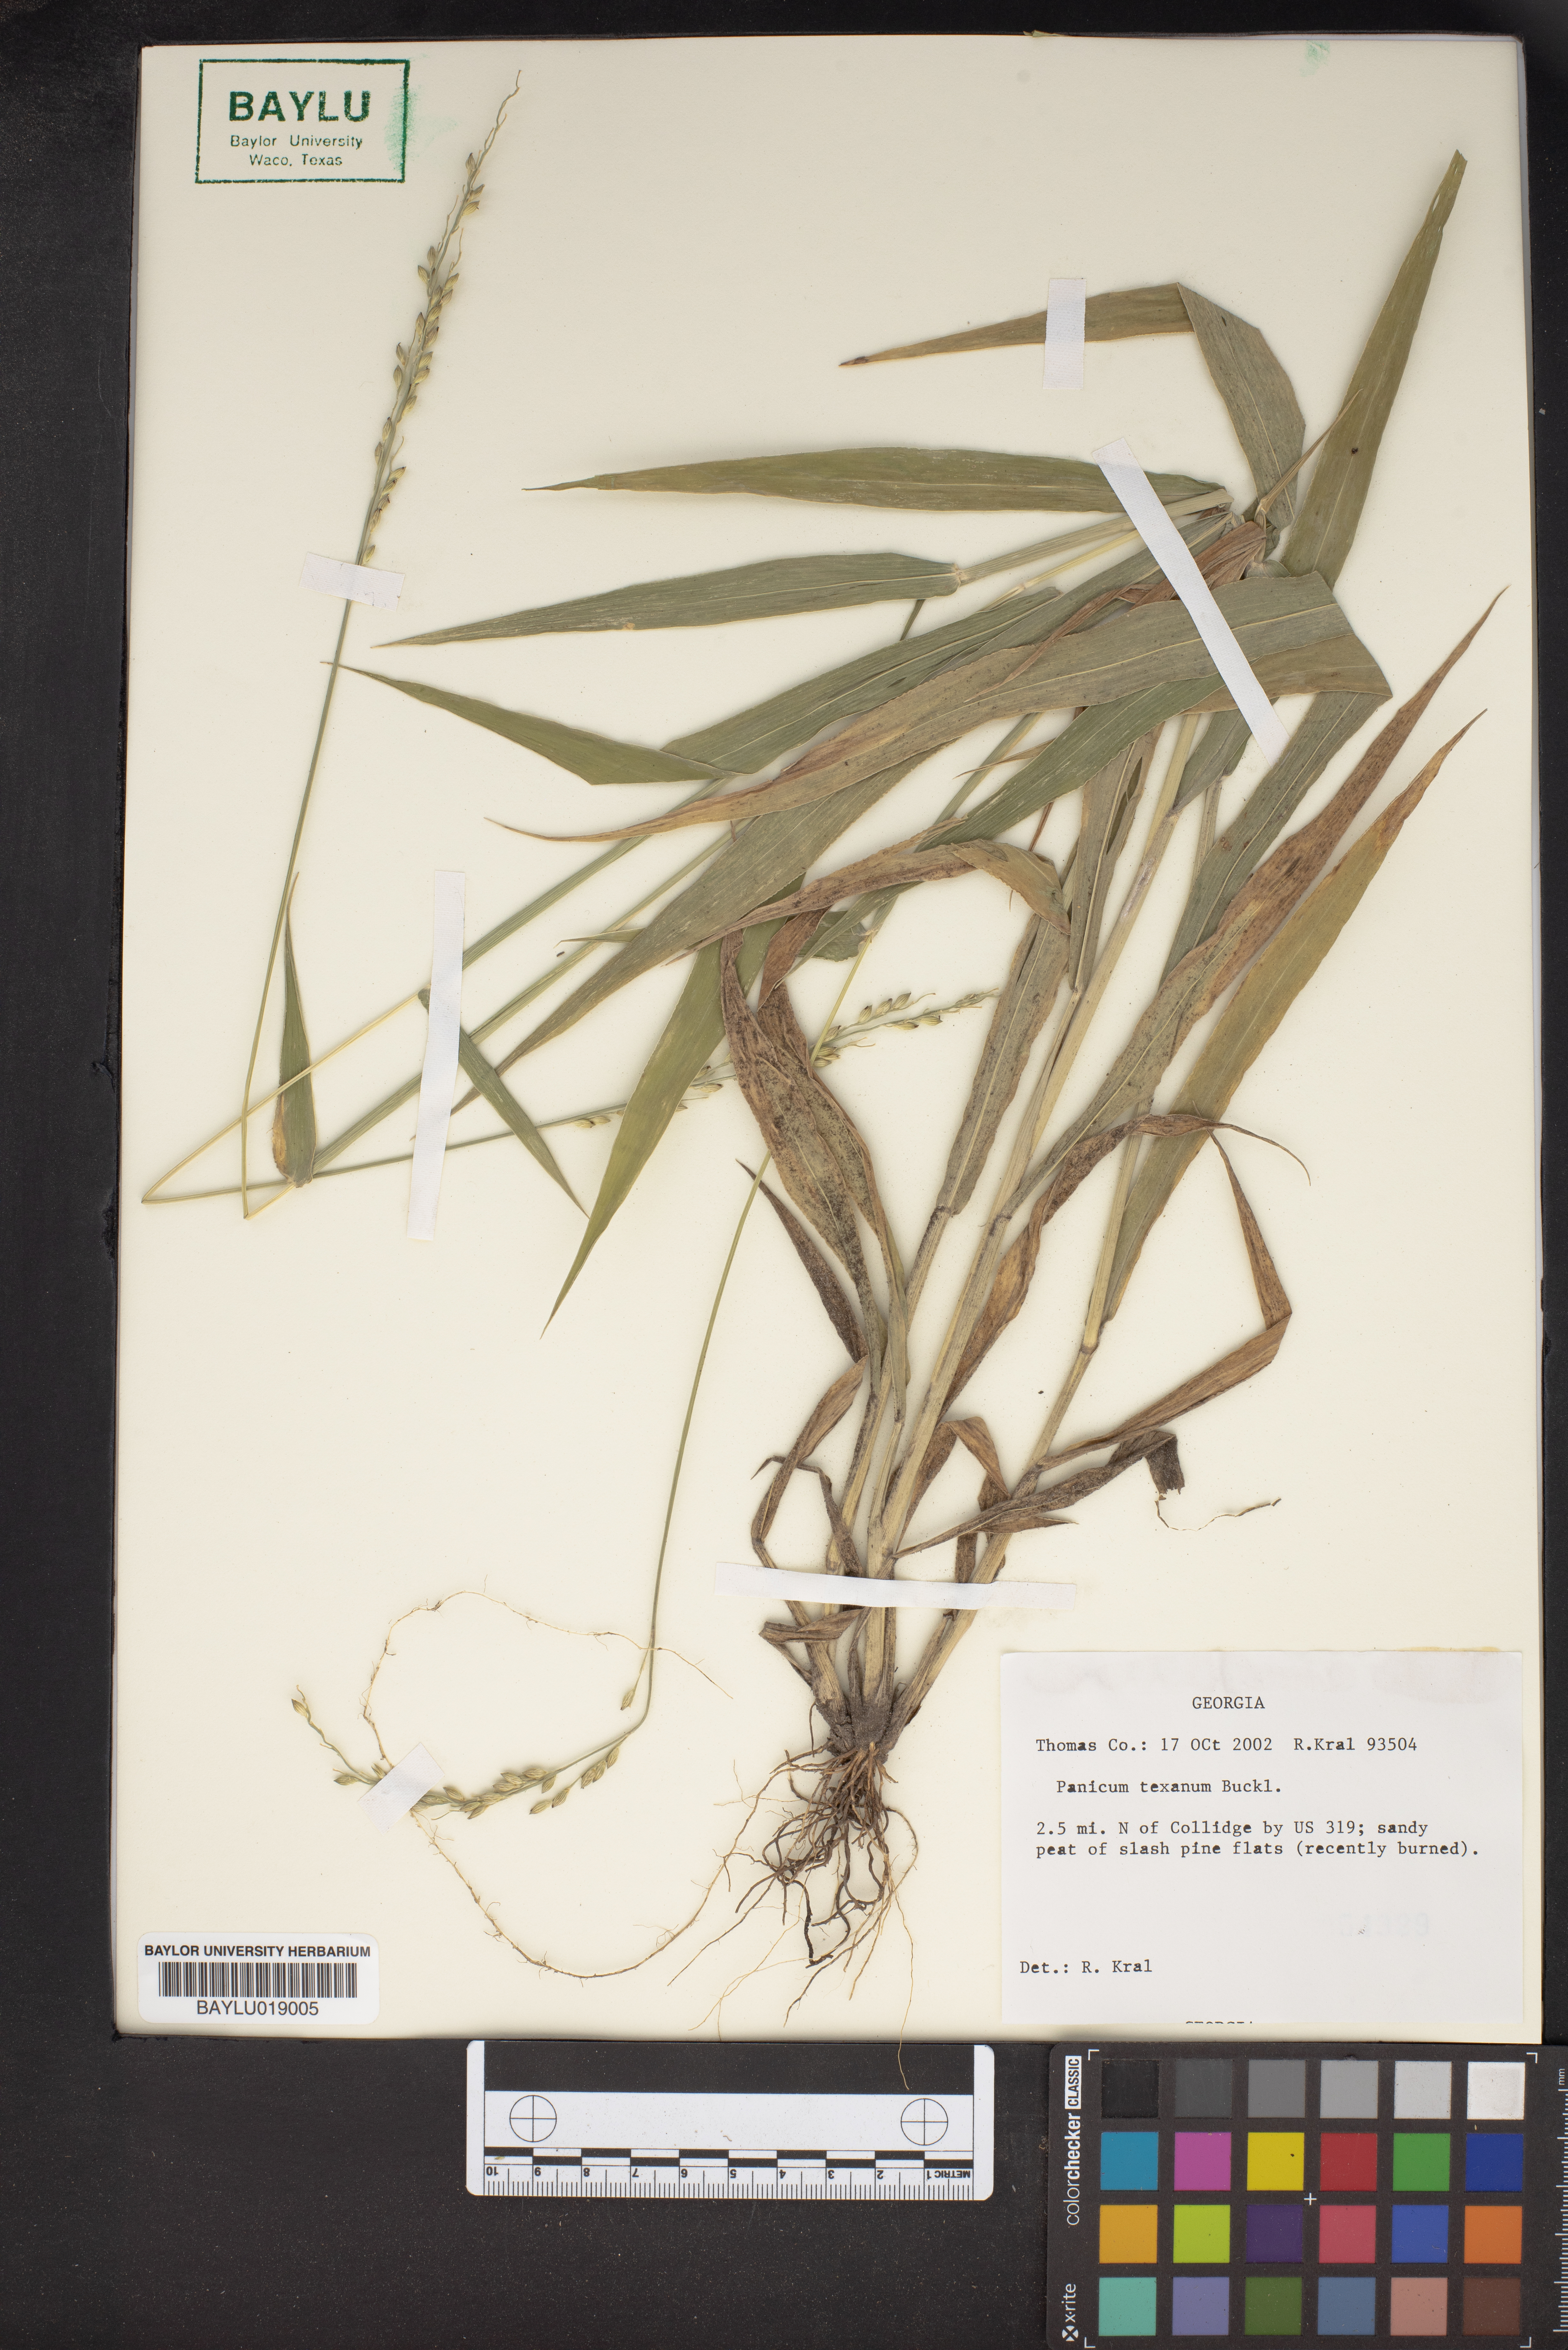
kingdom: Plantae
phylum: Tracheophyta
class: Liliopsida
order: Poales
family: Poaceae
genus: Urochloa
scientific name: Urochloa texana
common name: Texas millet
